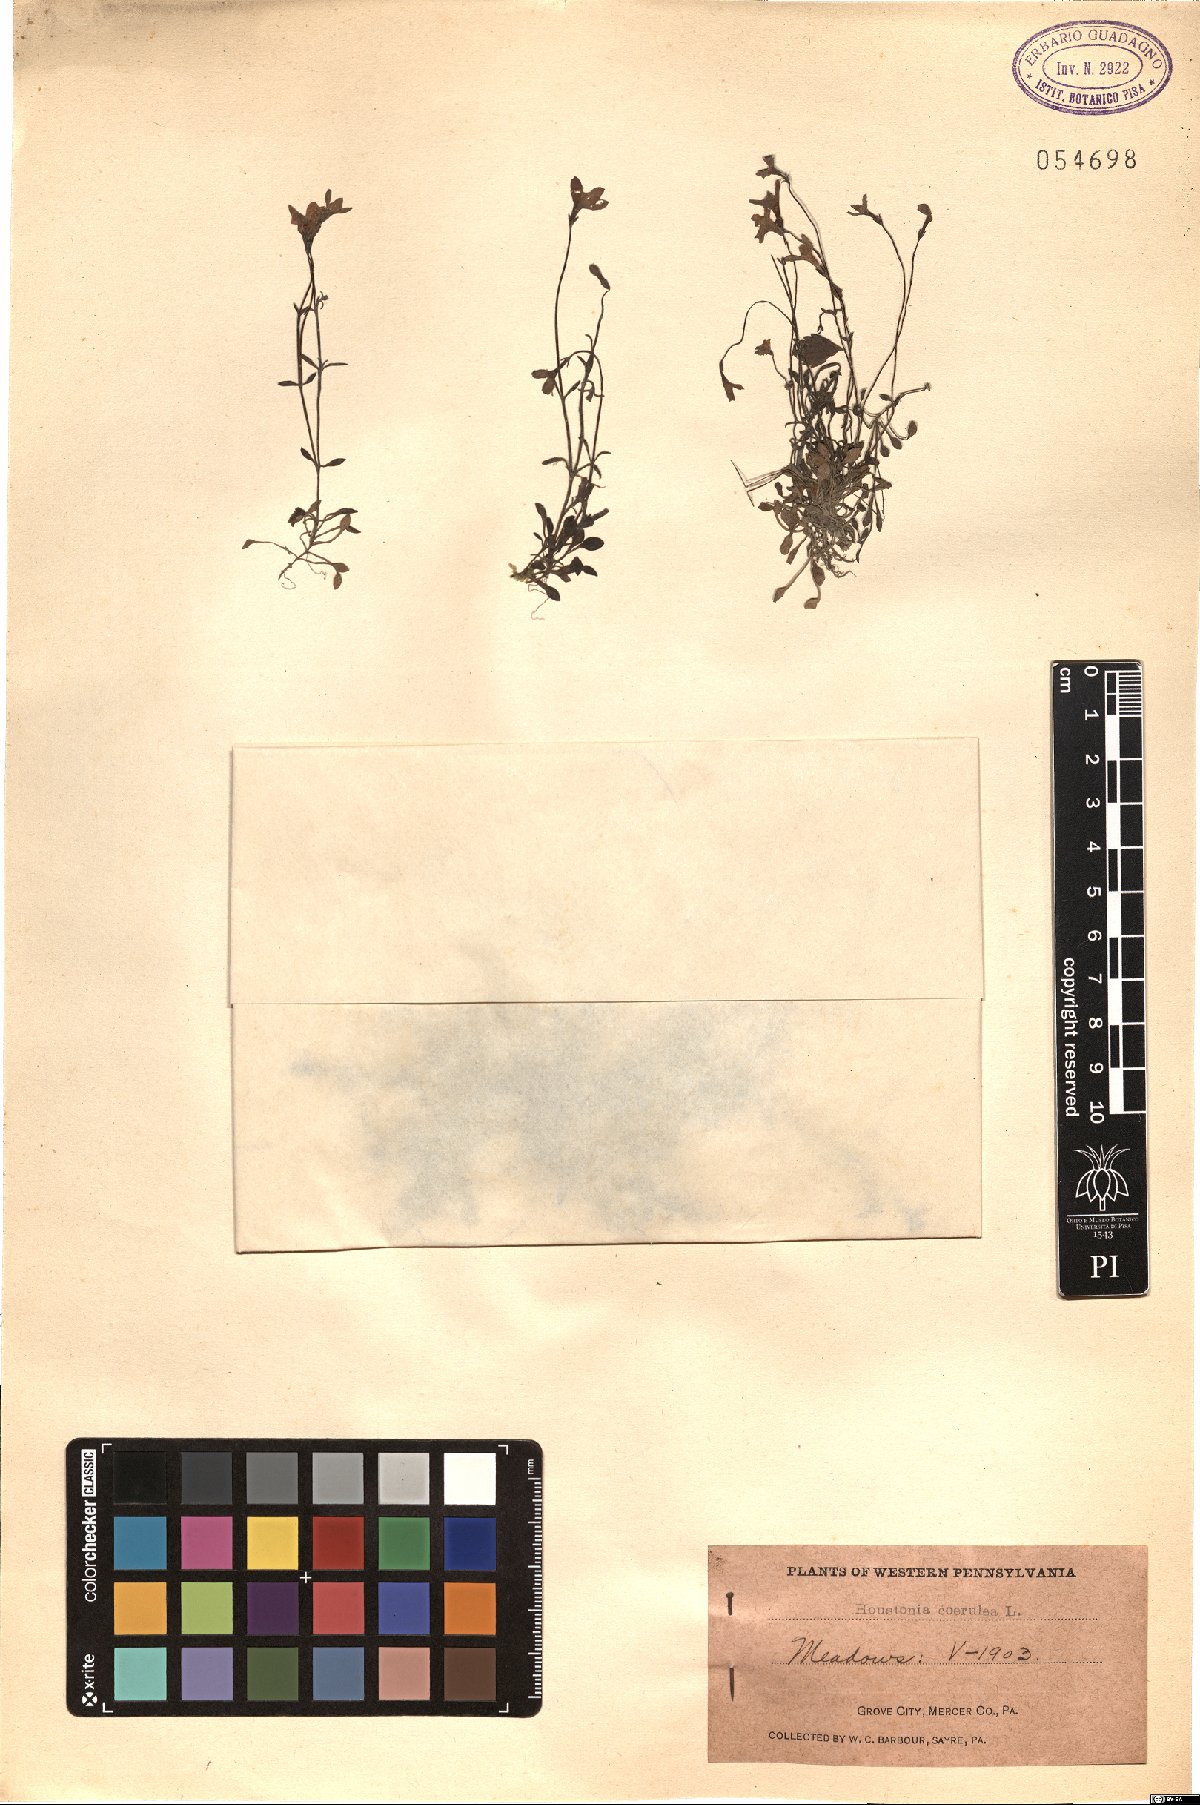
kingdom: Plantae
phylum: Tracheophyta
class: Magnoliopsida
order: Gentianales
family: Rubiaceae
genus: Houstonia
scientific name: Houstonia caerulea
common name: Bluets
